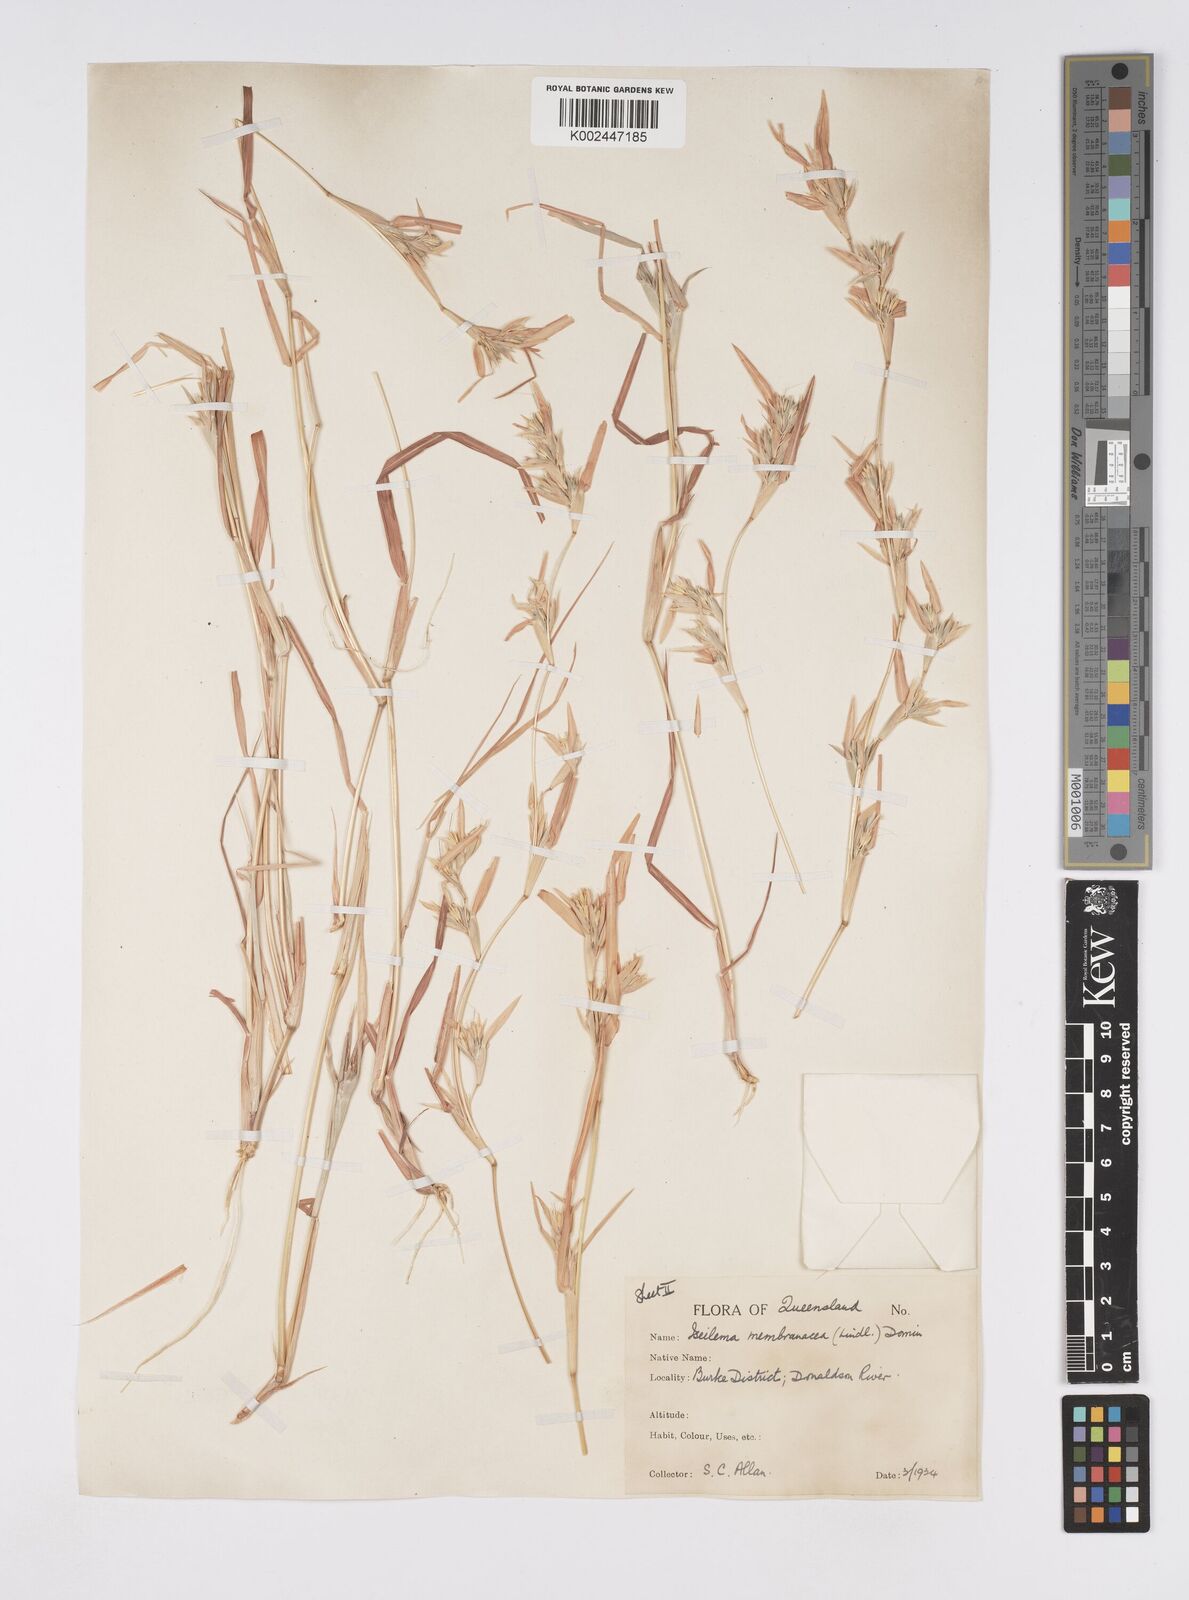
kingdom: Plantae
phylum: Tracheophyta
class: Liliopsida
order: Poales
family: Poaceae
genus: Iseilema
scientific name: Iseilema membranaceum
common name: Small flinders grass
